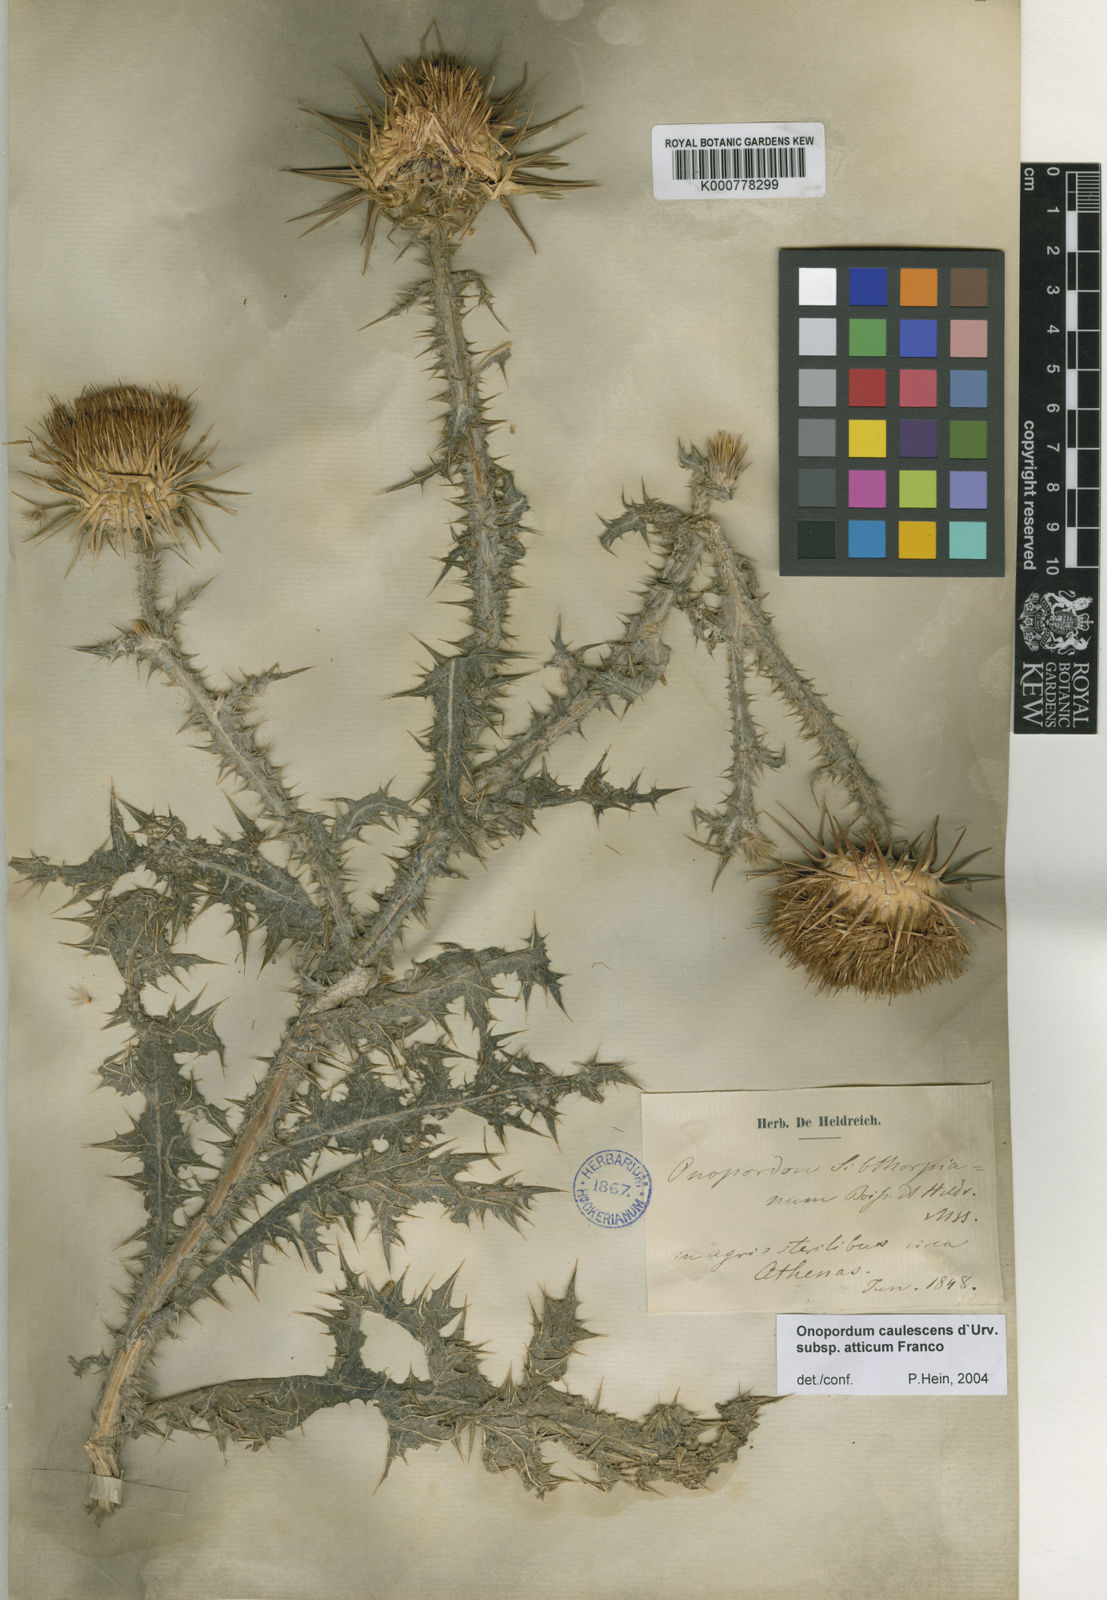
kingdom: Plantae
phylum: Tracheophyta
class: Magnoliopsida
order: Asterales
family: Asteraceae
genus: Onopordum
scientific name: Onopordum caulescens
